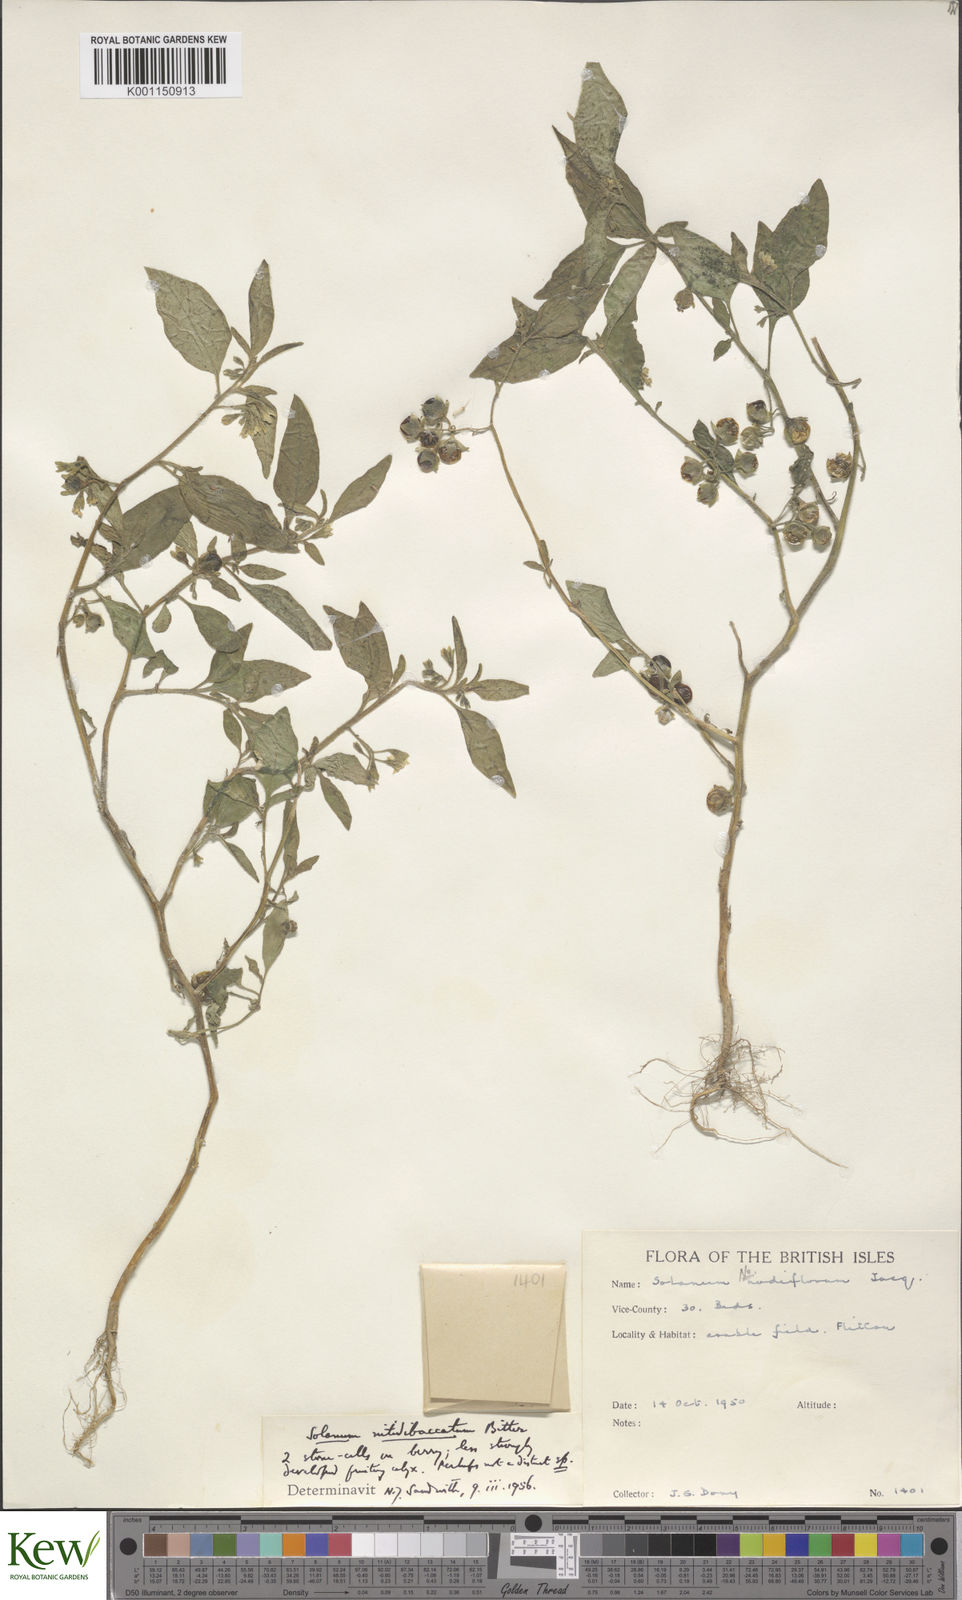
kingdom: Plantae
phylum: Tracheophyta
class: Magnoliopsida
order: Solanales
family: Solanaceae
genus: Solanum
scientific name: Solanum nitidibaccatum
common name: Hairy nightshade
